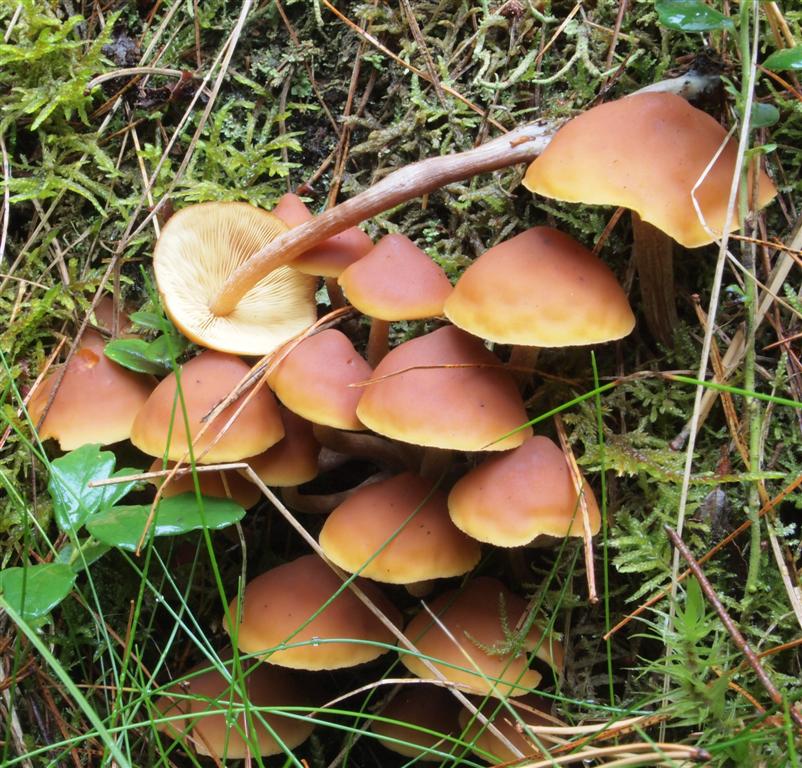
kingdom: Fungi
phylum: Basidiomycota
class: Agaricomycetes
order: Agaricales
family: Hymenogastraceae
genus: Gymnopilus
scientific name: Gymnopilus picreus
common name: puklet flammehat
